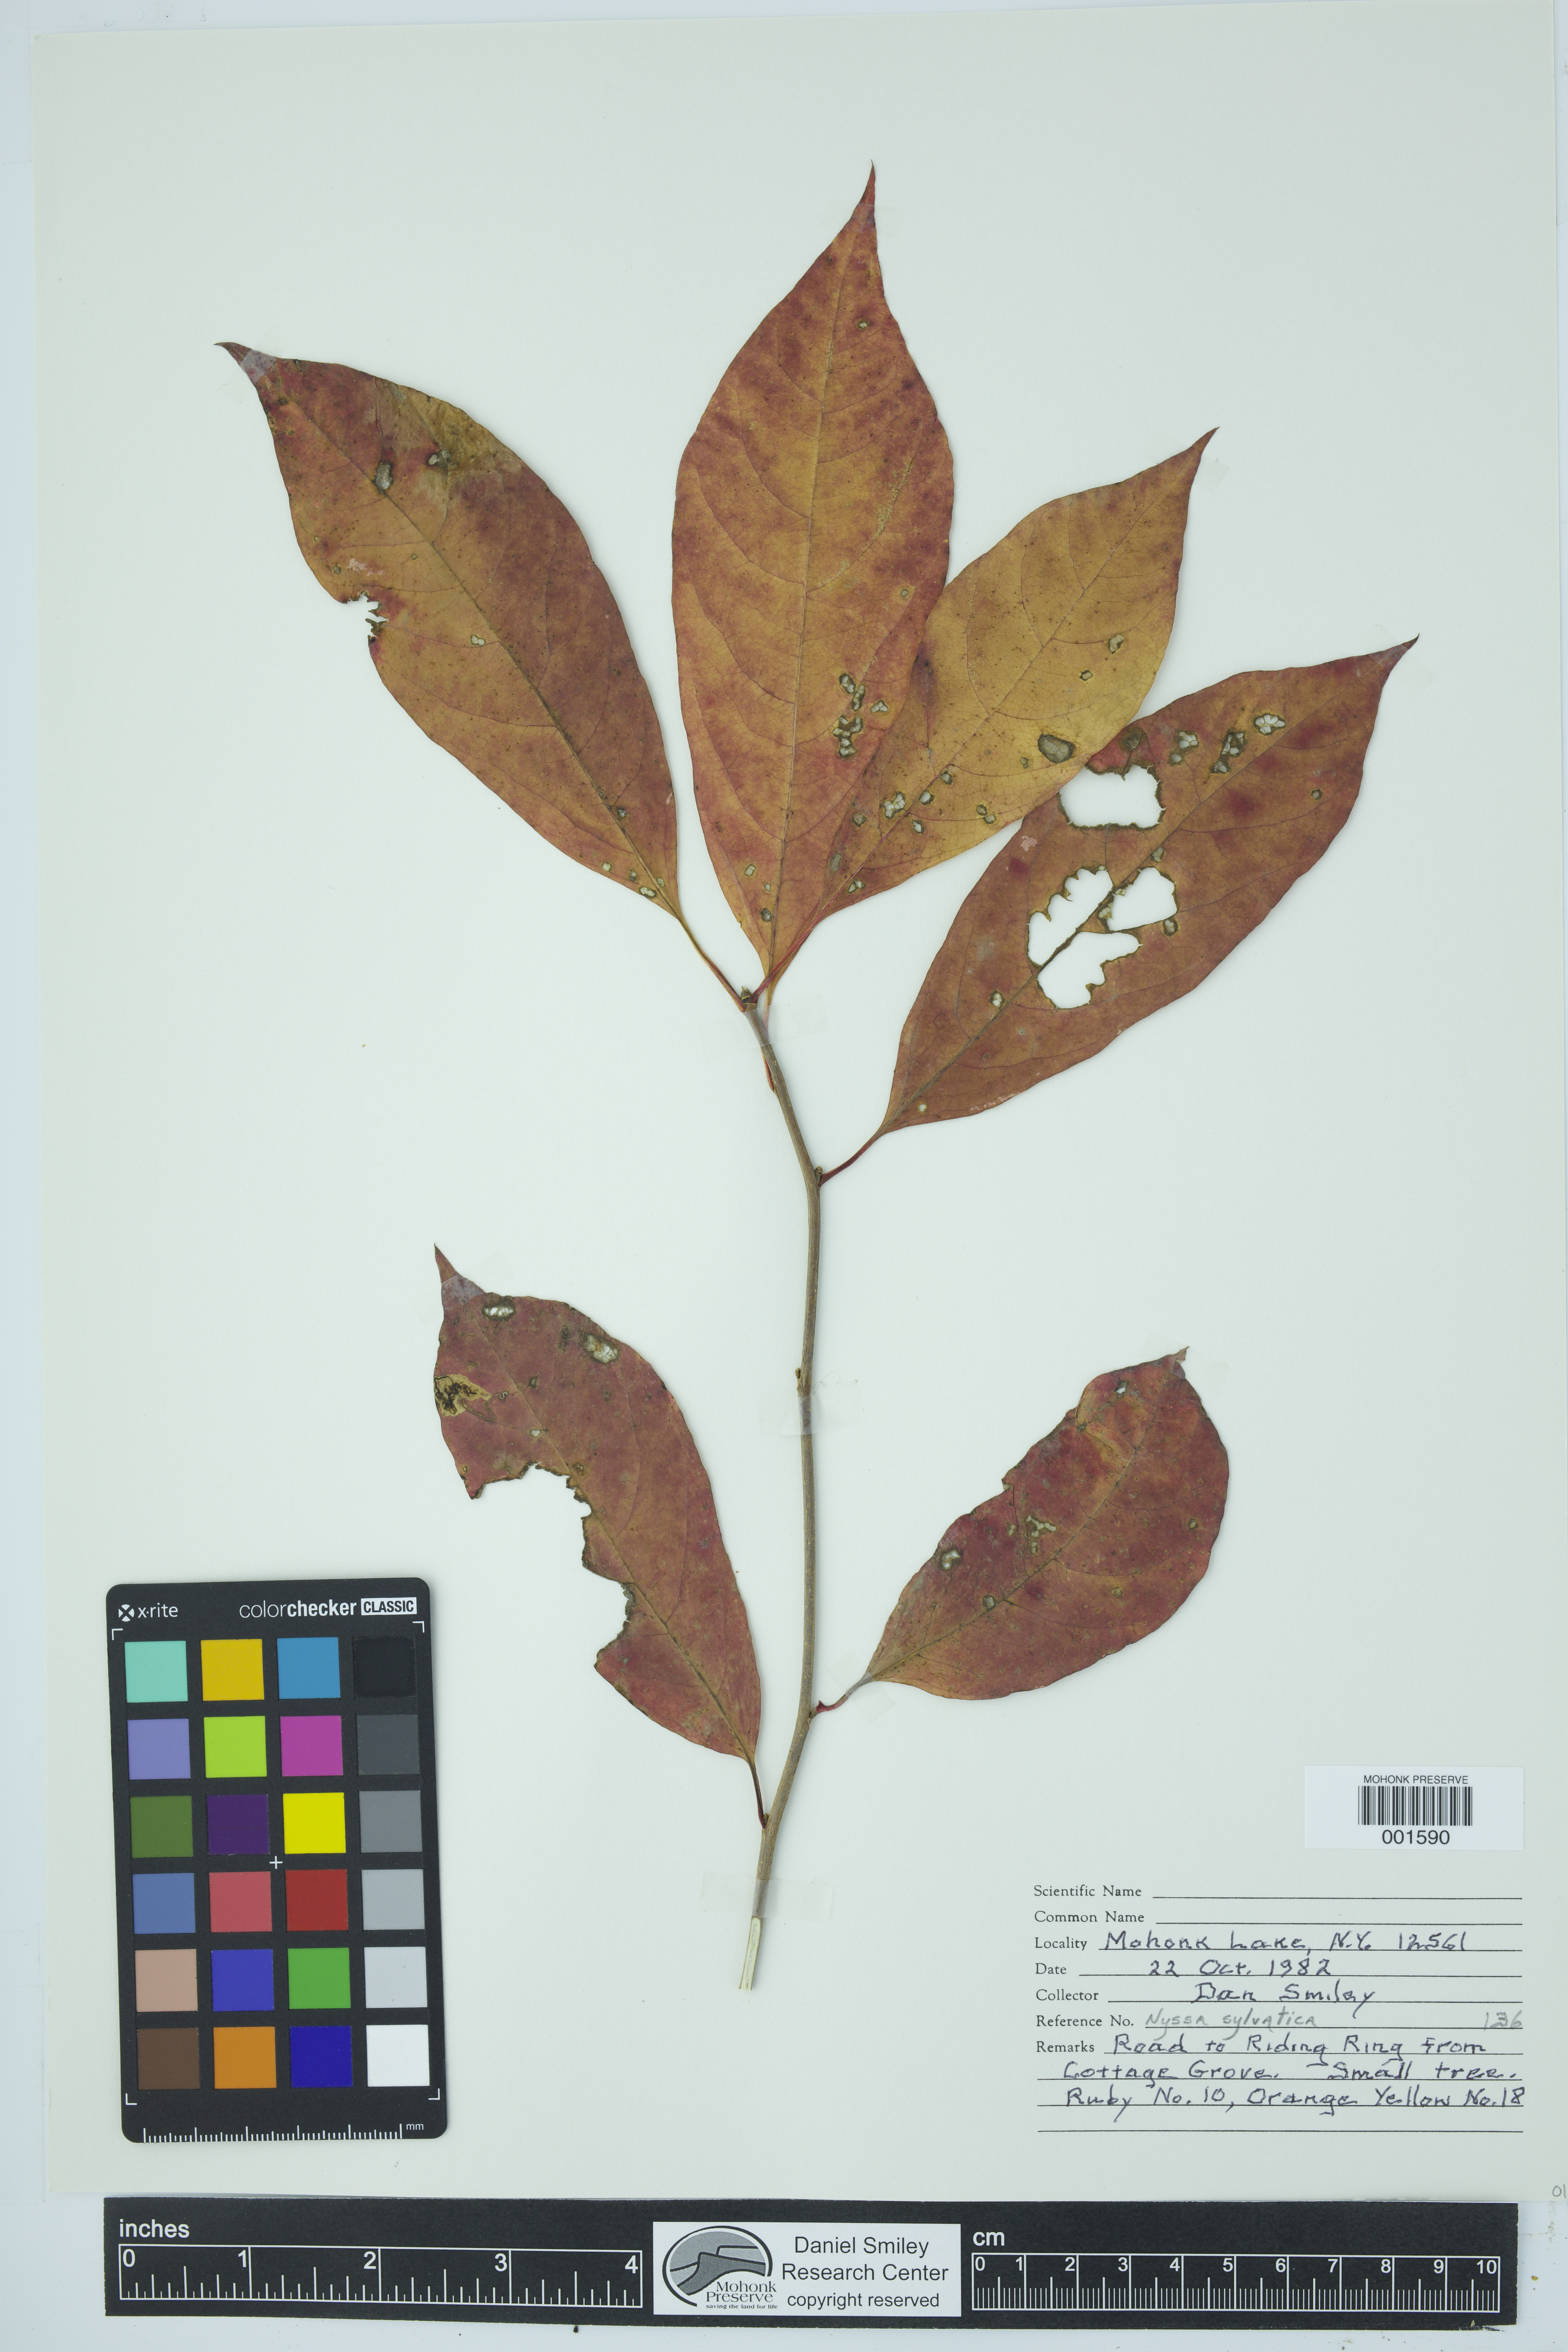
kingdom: Plantae
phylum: Tracheophyta
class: Magnoliopsida
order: Cornales
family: Nyssaceae
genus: Nyssa
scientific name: Nyssa sylvatica
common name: Black tupelo
